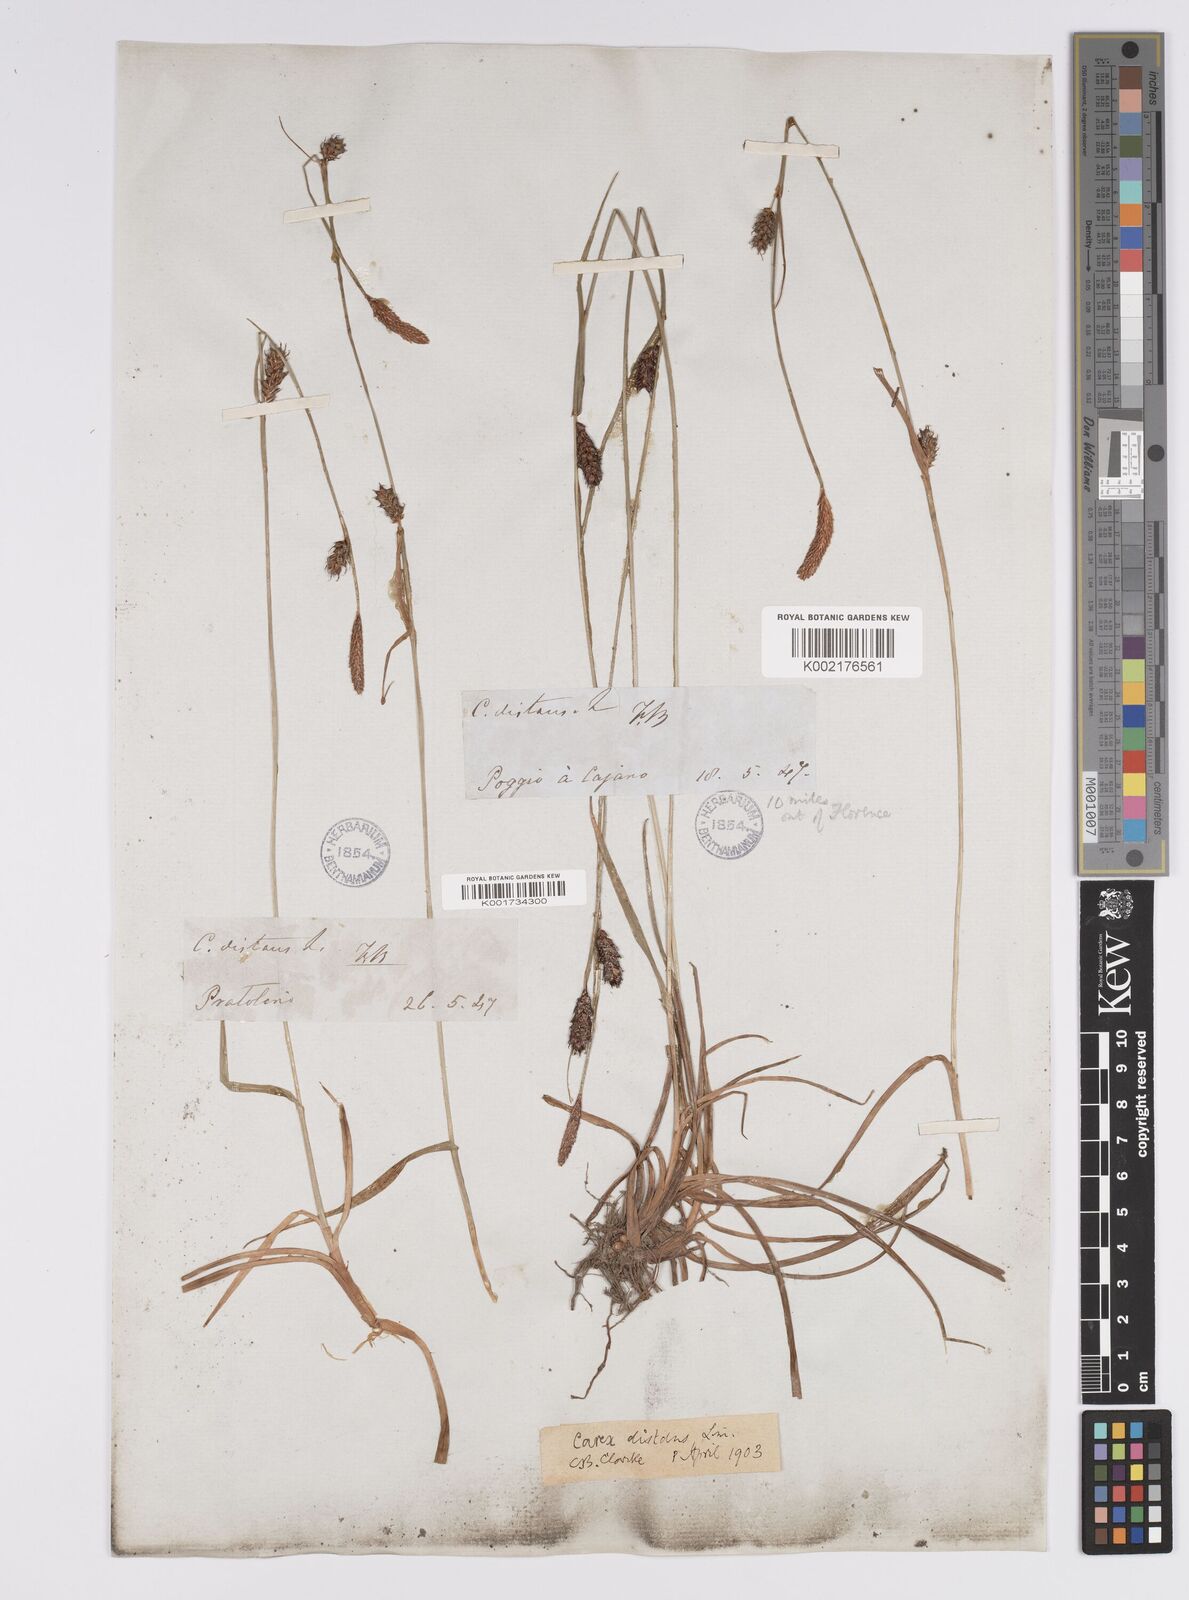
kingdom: Plantae
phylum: Tracheophyta
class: Liliopsida
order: Poales
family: Cyperaceae
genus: Carex
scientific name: Carex distans
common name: Distant sedge
